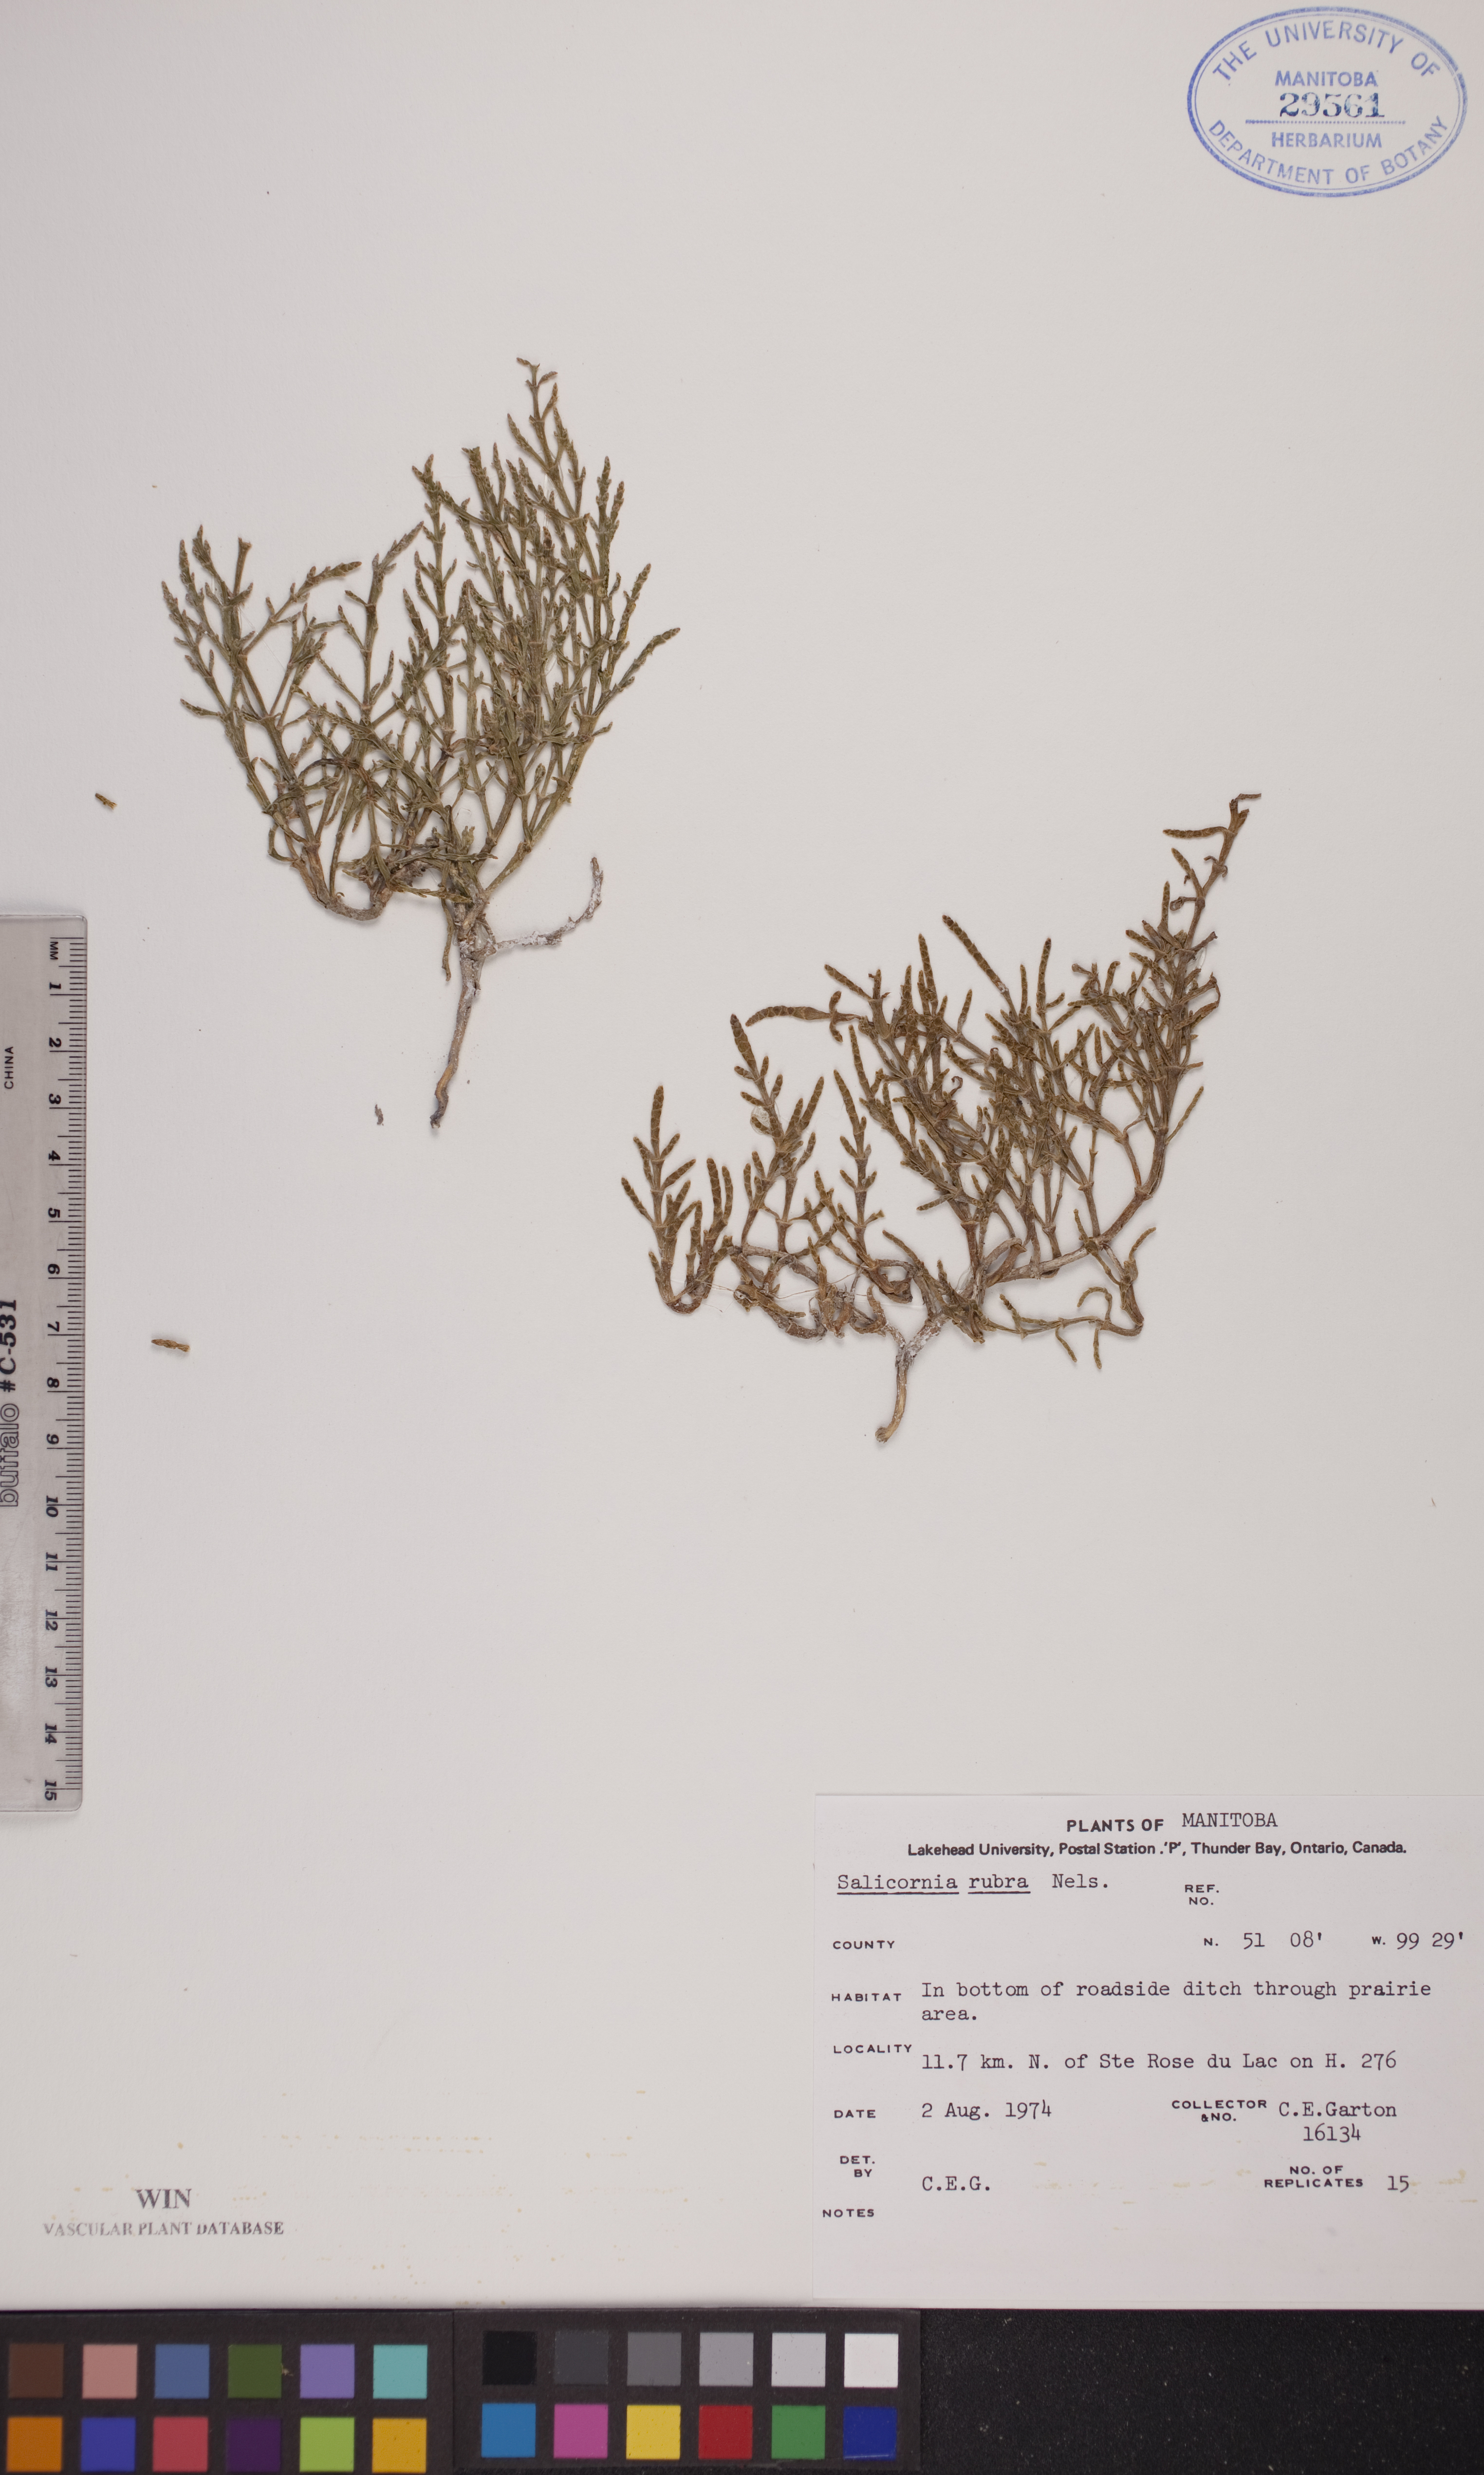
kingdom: Plantae
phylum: Tracheophyta
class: Magnoliopsida
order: Caryophyllales
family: Amaranthaceae
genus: Salicornia
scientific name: Salicornia rubra
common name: Red glasswort
